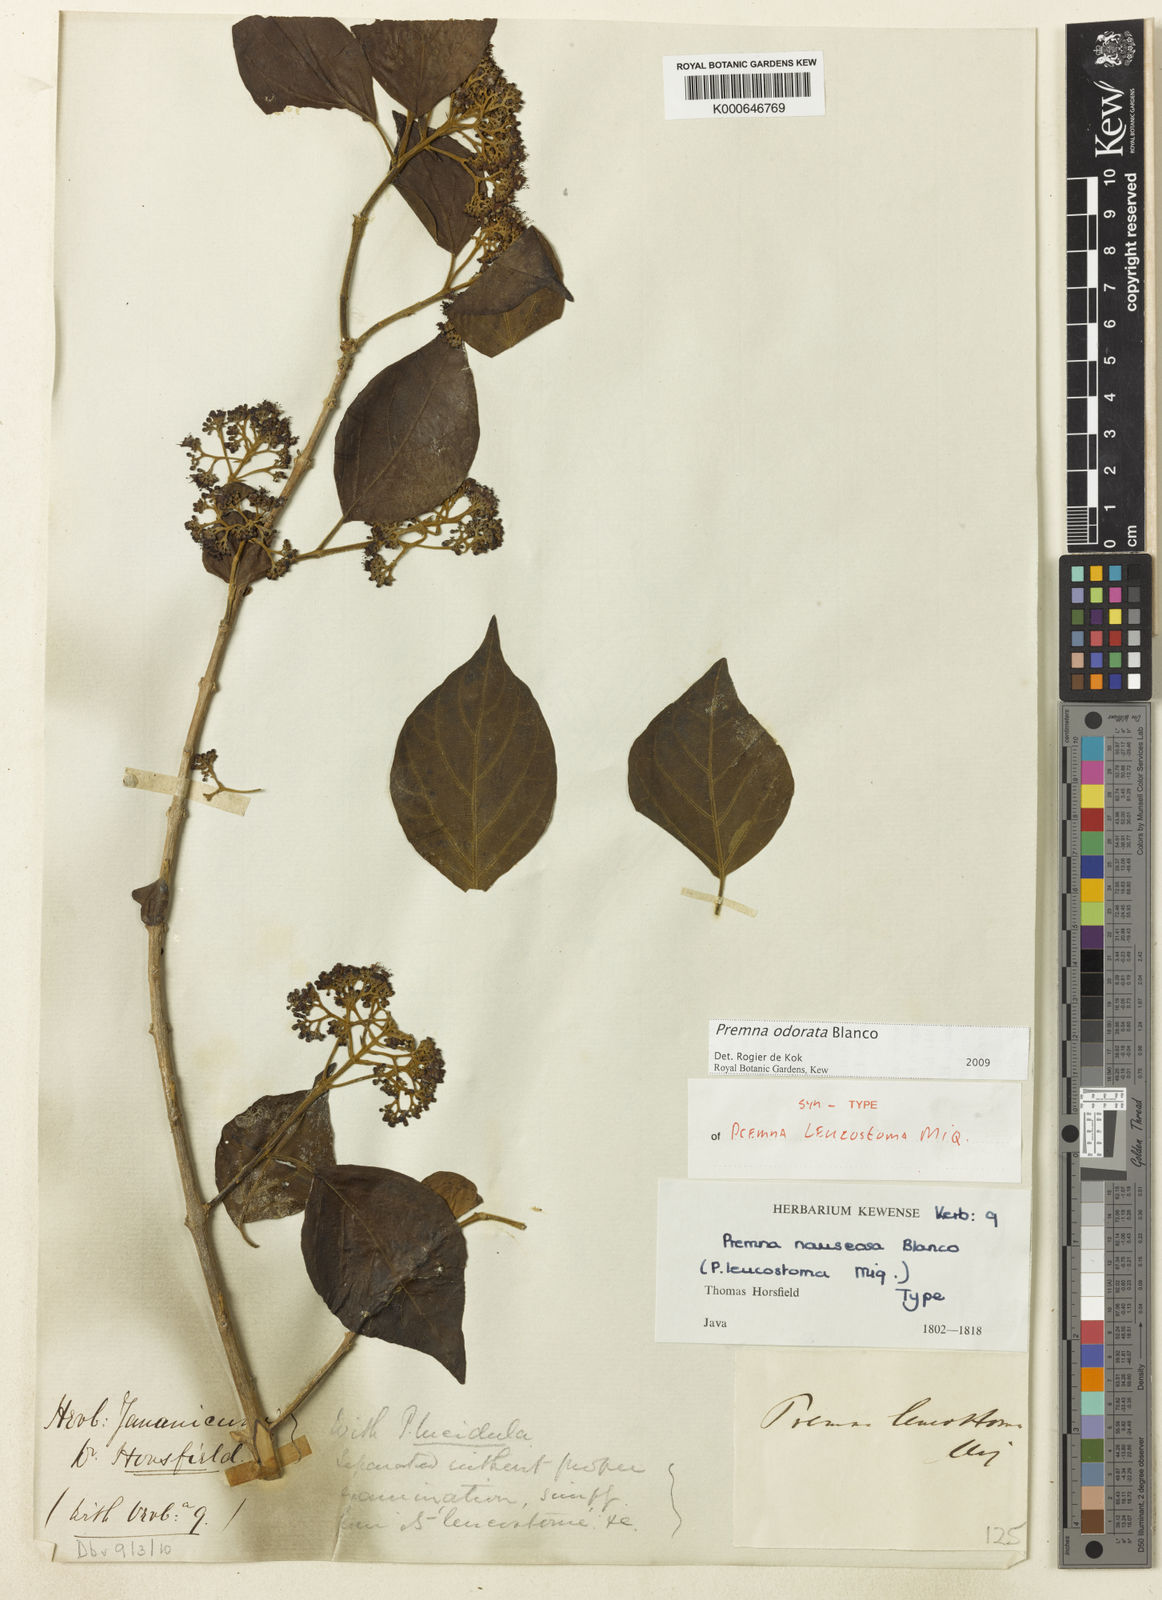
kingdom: Plantae
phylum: Tracheophyta
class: Magnoliopsida
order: Lamiales
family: Lamiaceae
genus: Premna
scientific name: Premna odorata
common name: Fragrant premna
